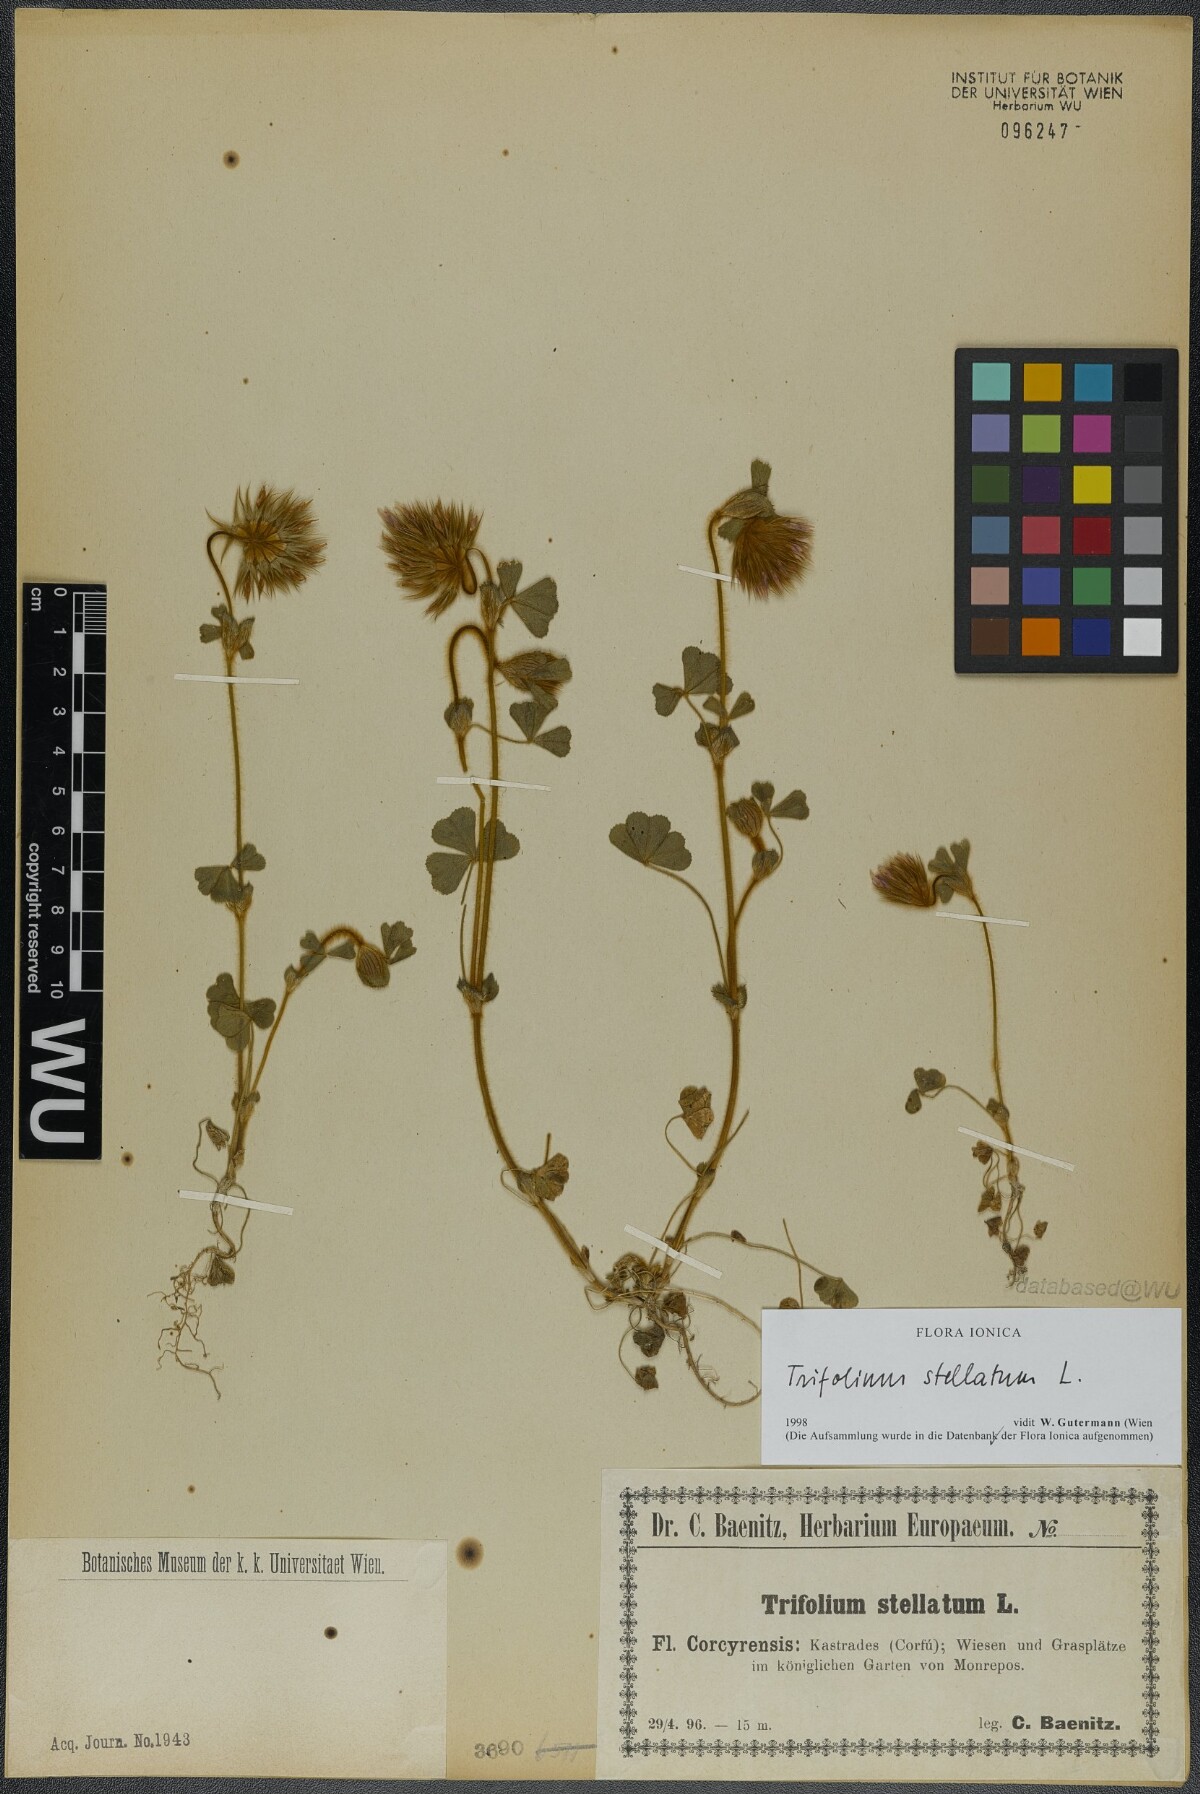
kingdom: Plantae
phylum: Tracheophyta
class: Magnoliopsida
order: Fabales
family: Fabaceae
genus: Trifolium
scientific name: Trifolium stellatum
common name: Starry clover
